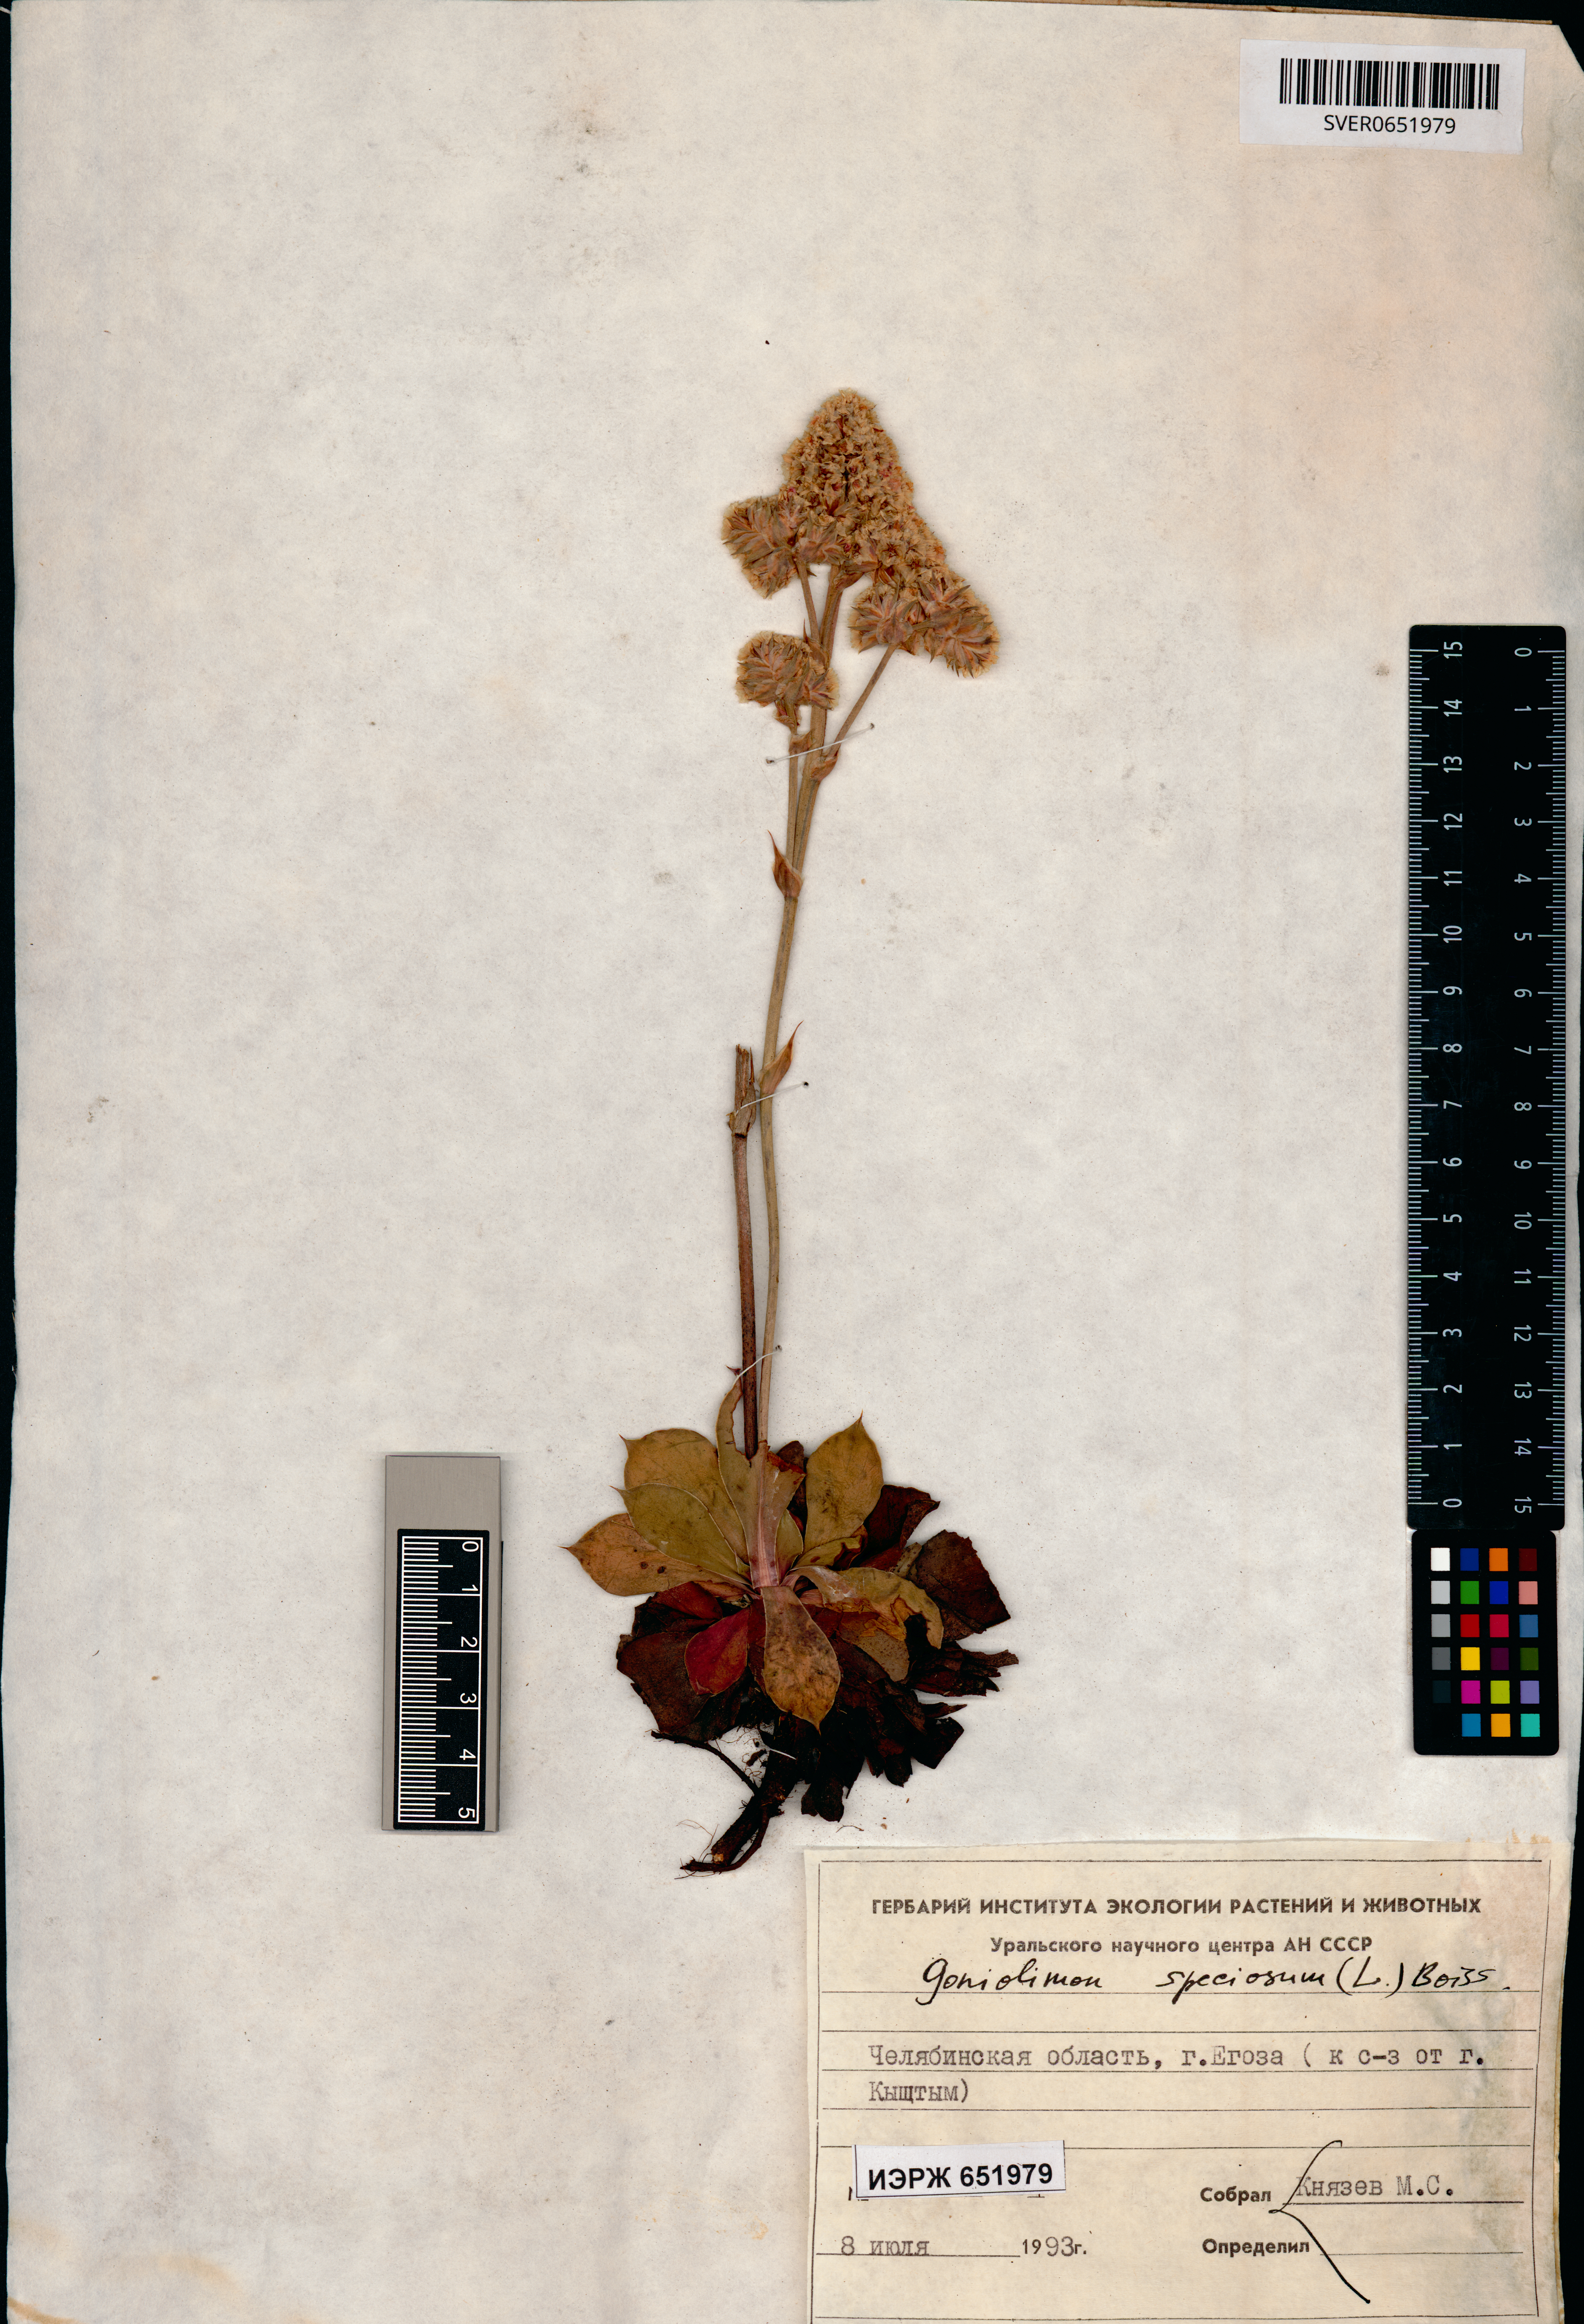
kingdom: Plantae
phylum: Tracheophyta
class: Magnoliopsida
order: Caryophyllales
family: Plumbaginaceae
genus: Goniolimon
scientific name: Goniolimon speciosum
